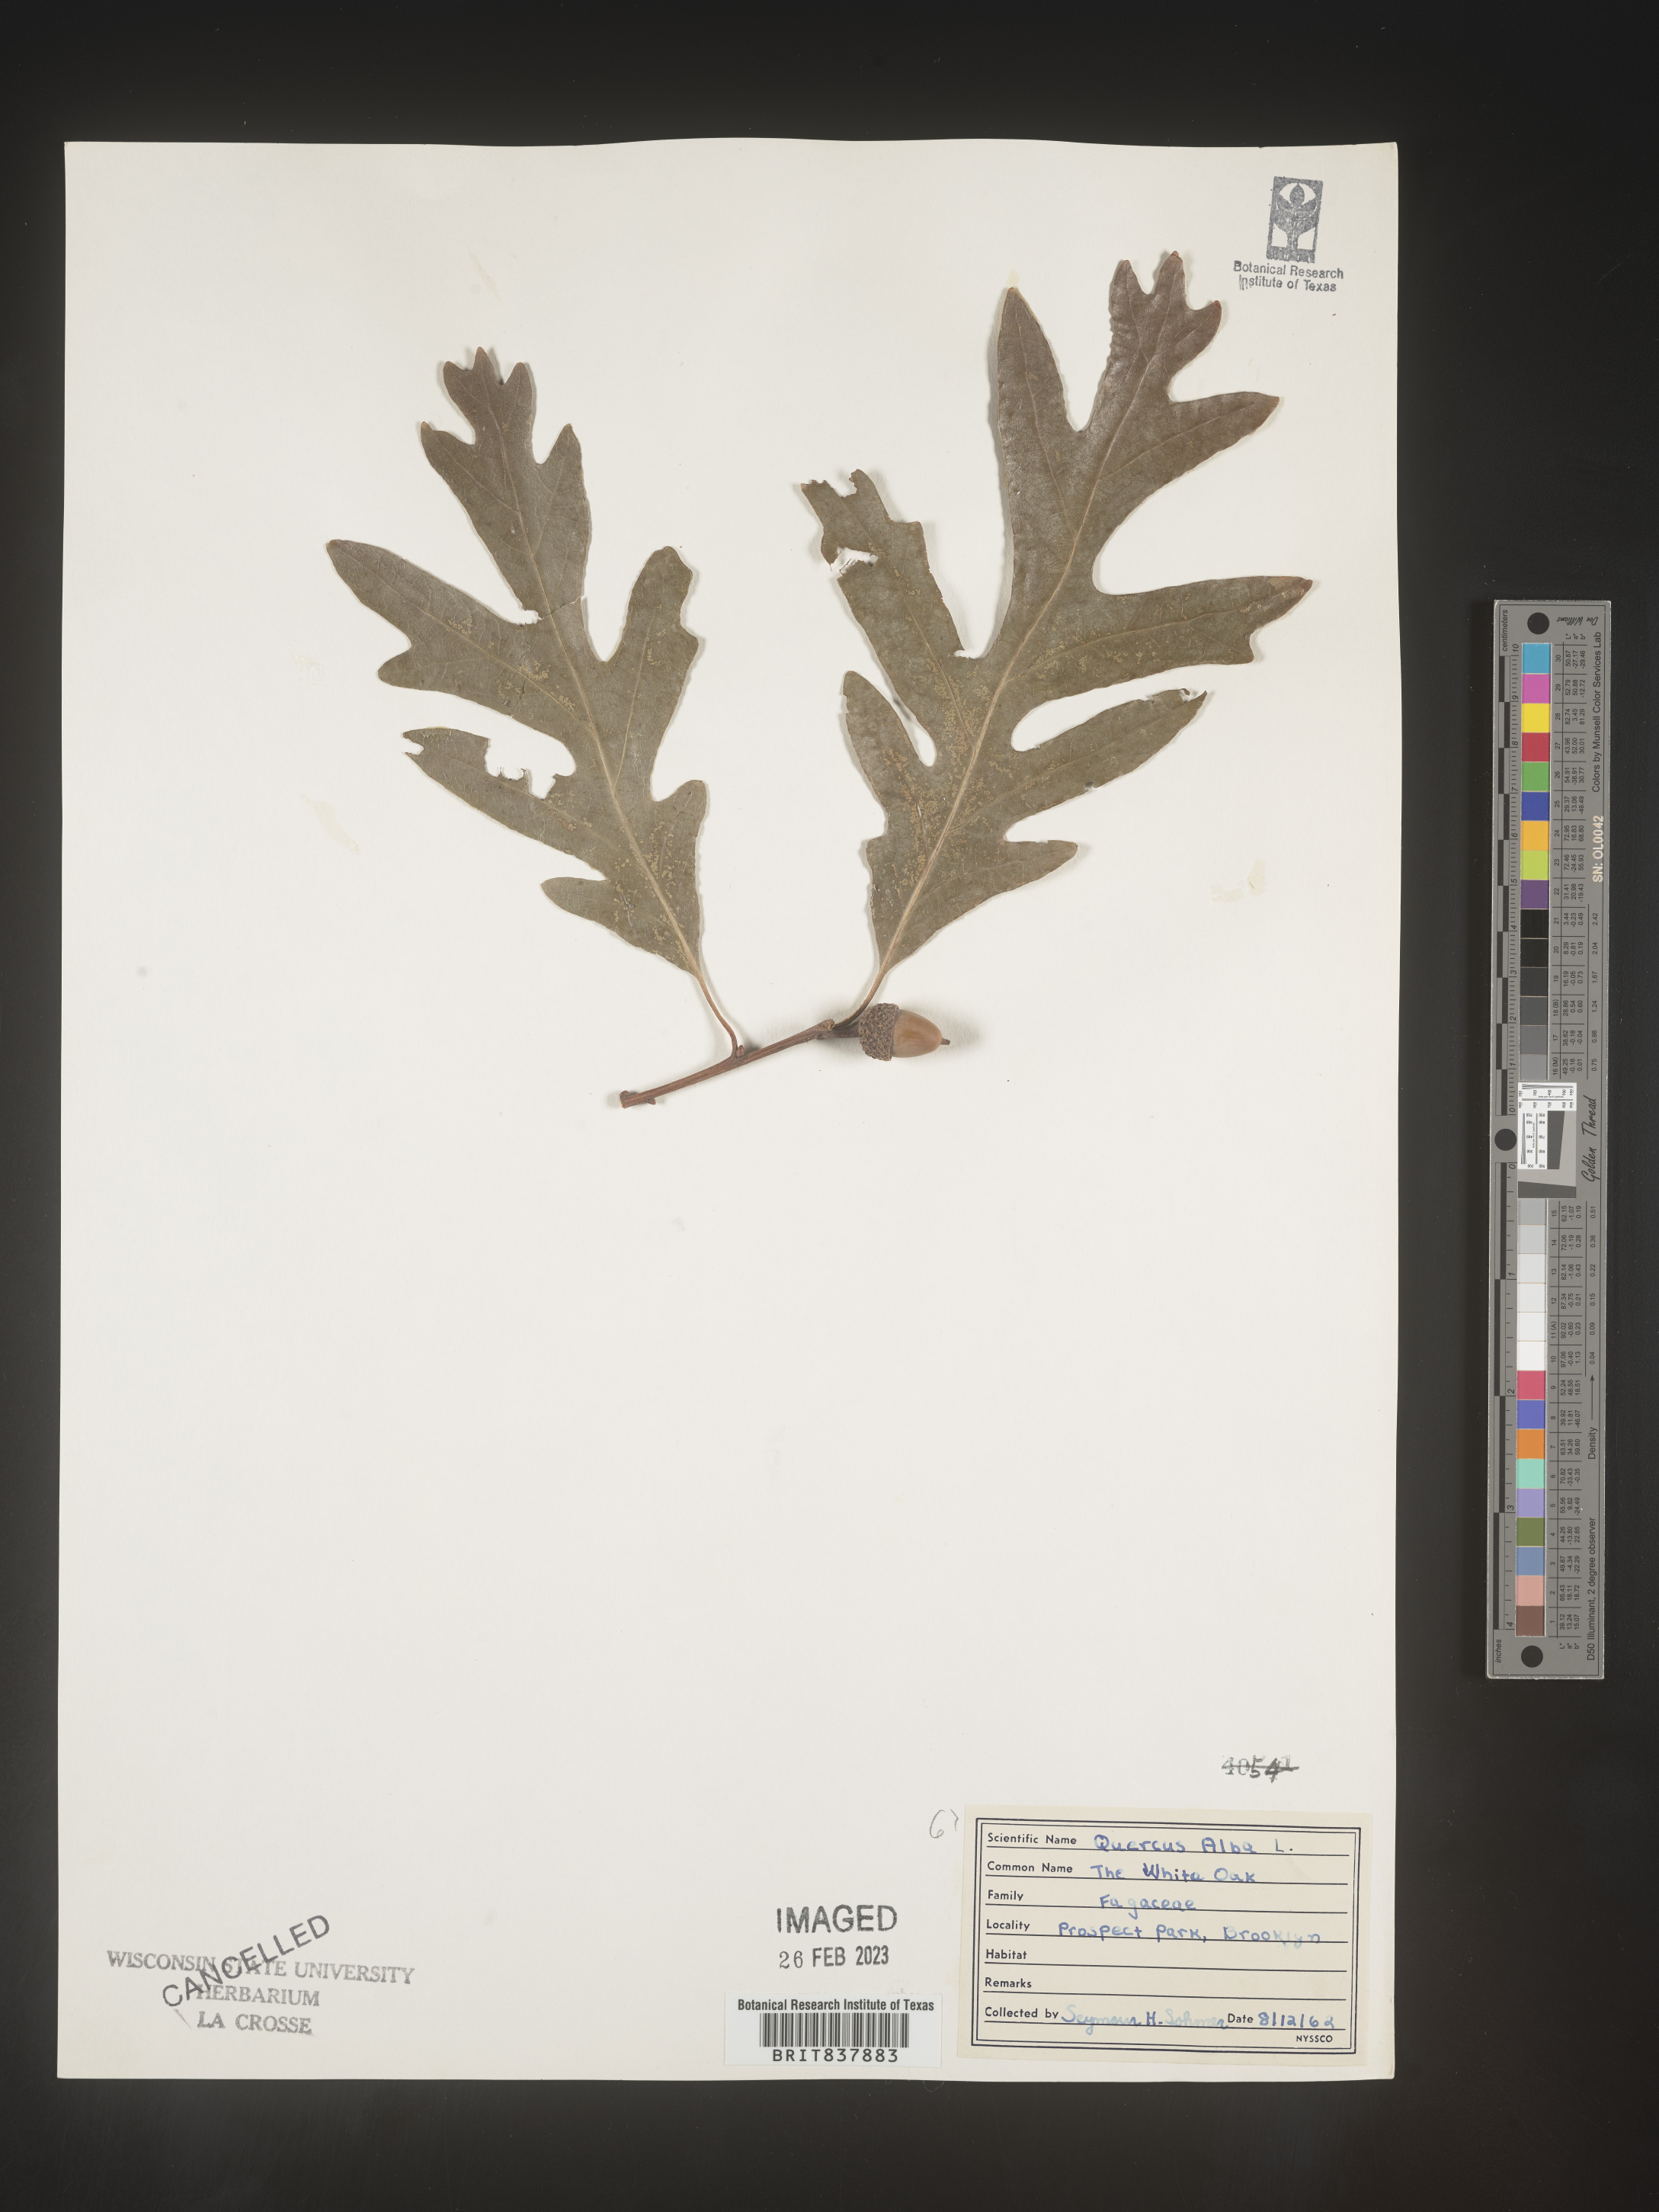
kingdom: Plantae
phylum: Tracheophyta
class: Magnoliopsida
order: Fagales
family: Fagaceae
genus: Quercus
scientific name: Quercus alba
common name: White oak
